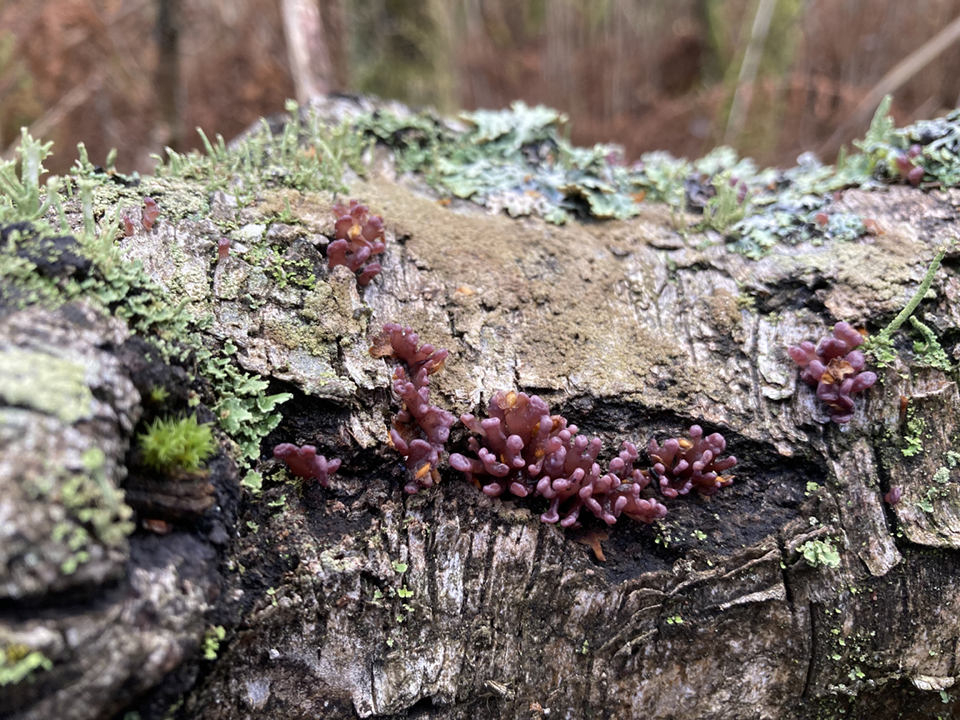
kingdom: Fungi
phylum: Ascomycota
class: Leotiomycetes
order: Helotiales
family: Gelatinodiscaceae
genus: Ascocoryne
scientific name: Ascocoryne sarcoides
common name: rødlilla sejskive
